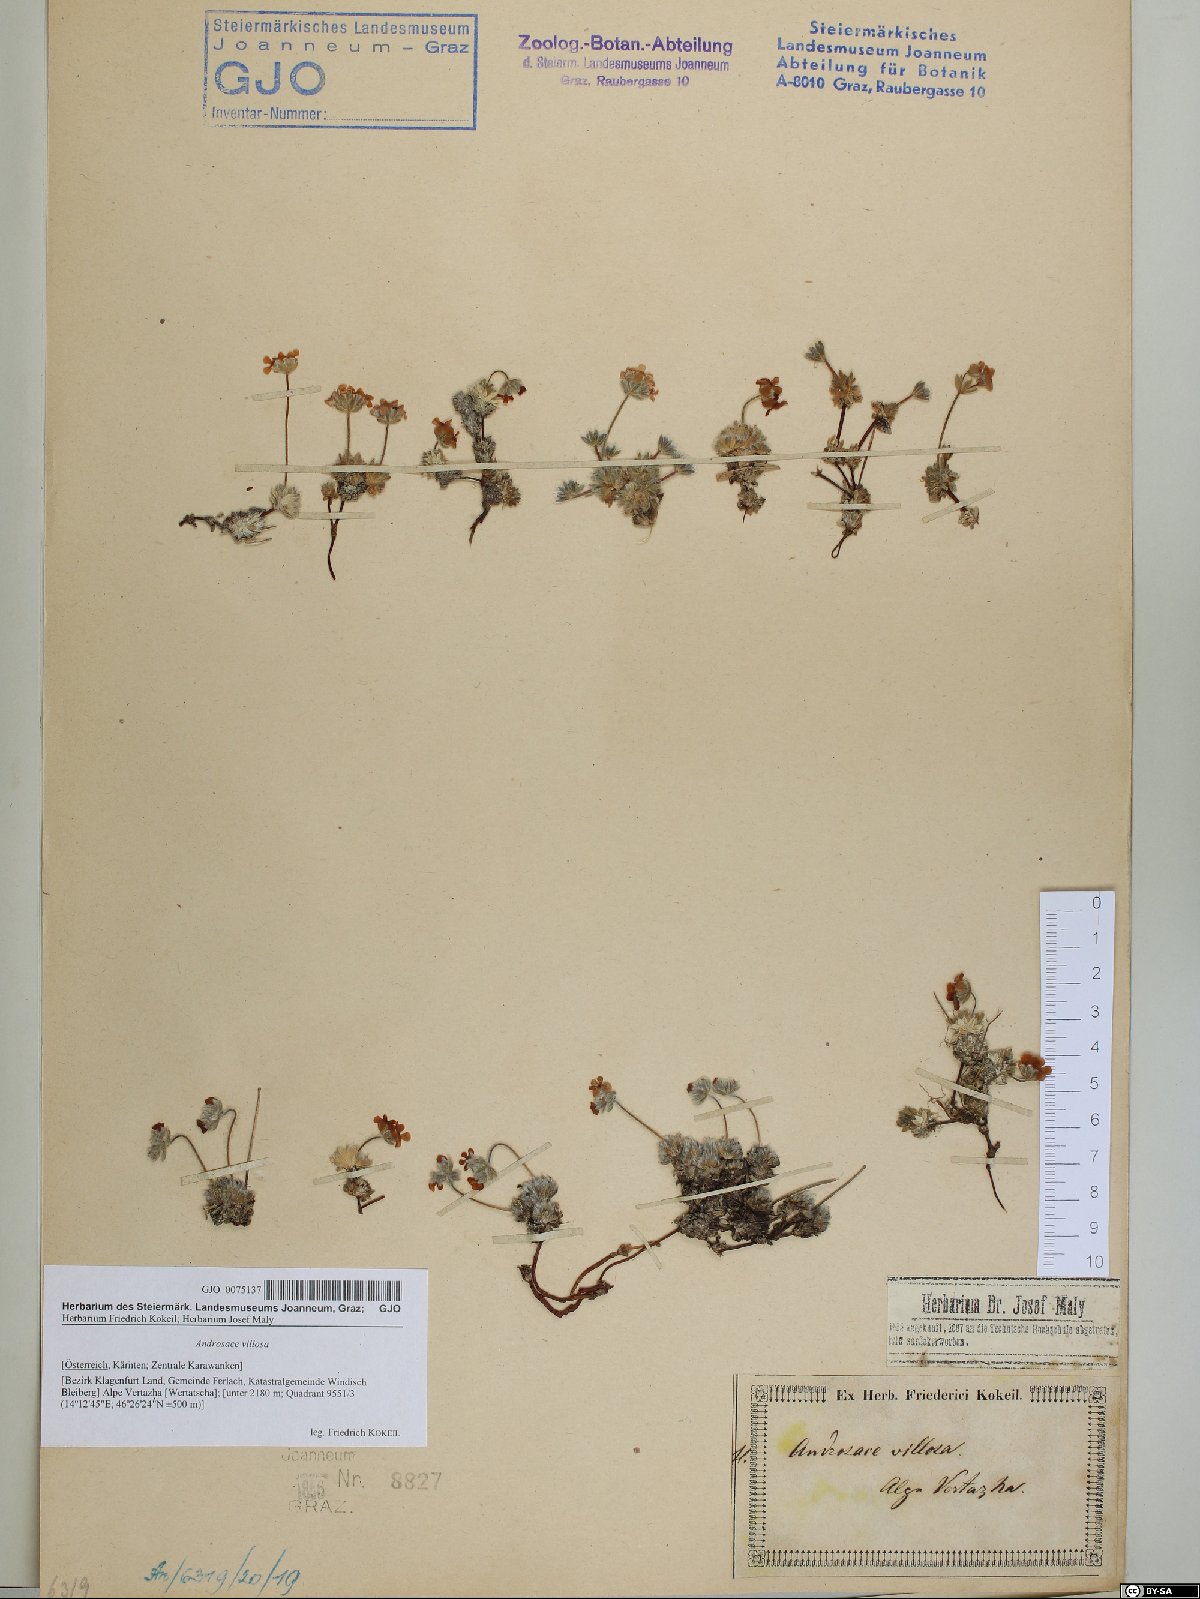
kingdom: Plantae
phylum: Tracheophyta
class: Magnoliopsida
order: Ericales
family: Primulaceae
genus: Androsace
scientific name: Androsace villosa
